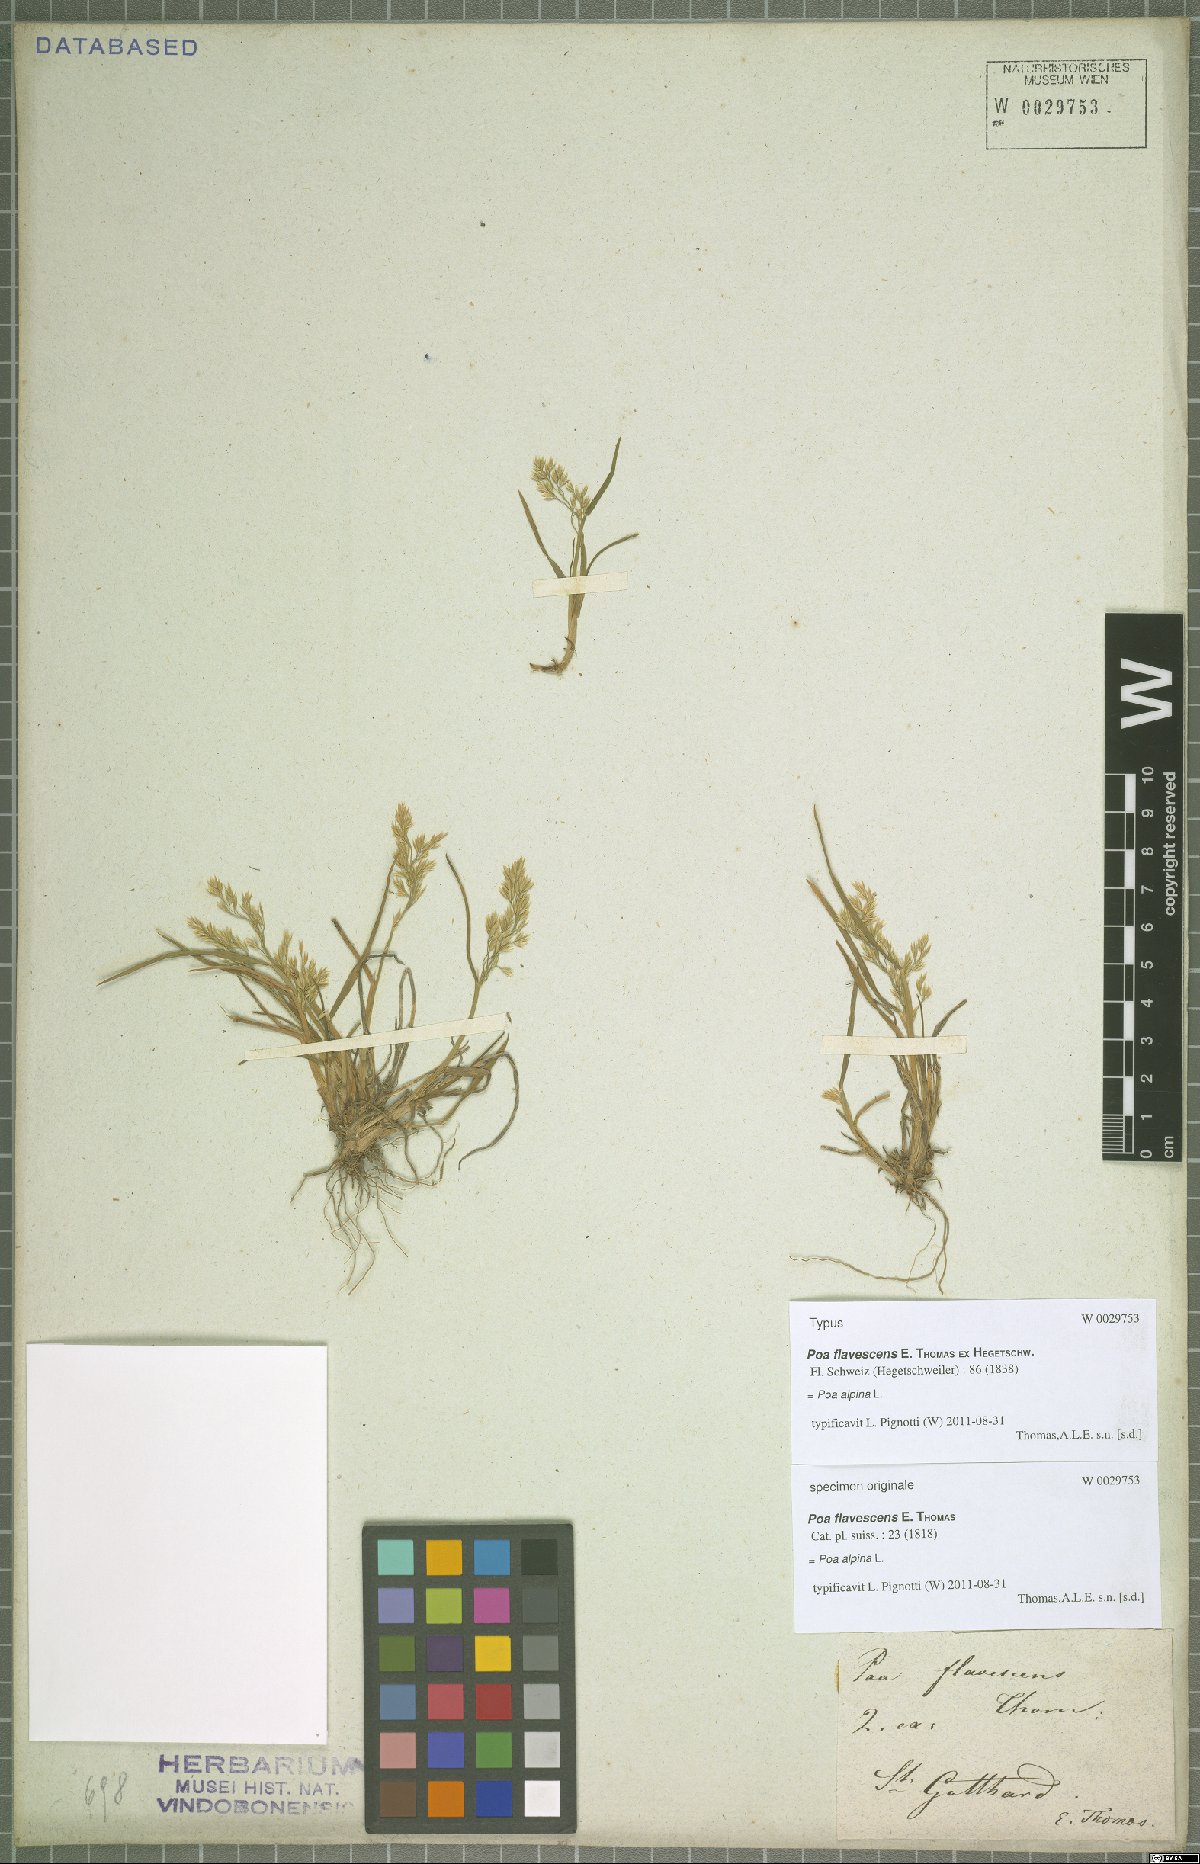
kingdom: Plantae
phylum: Tracheophyta
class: Liliopsida
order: Poales
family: Poaceae
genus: Poa
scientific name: Poa alpina
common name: Alpine bluegrass
